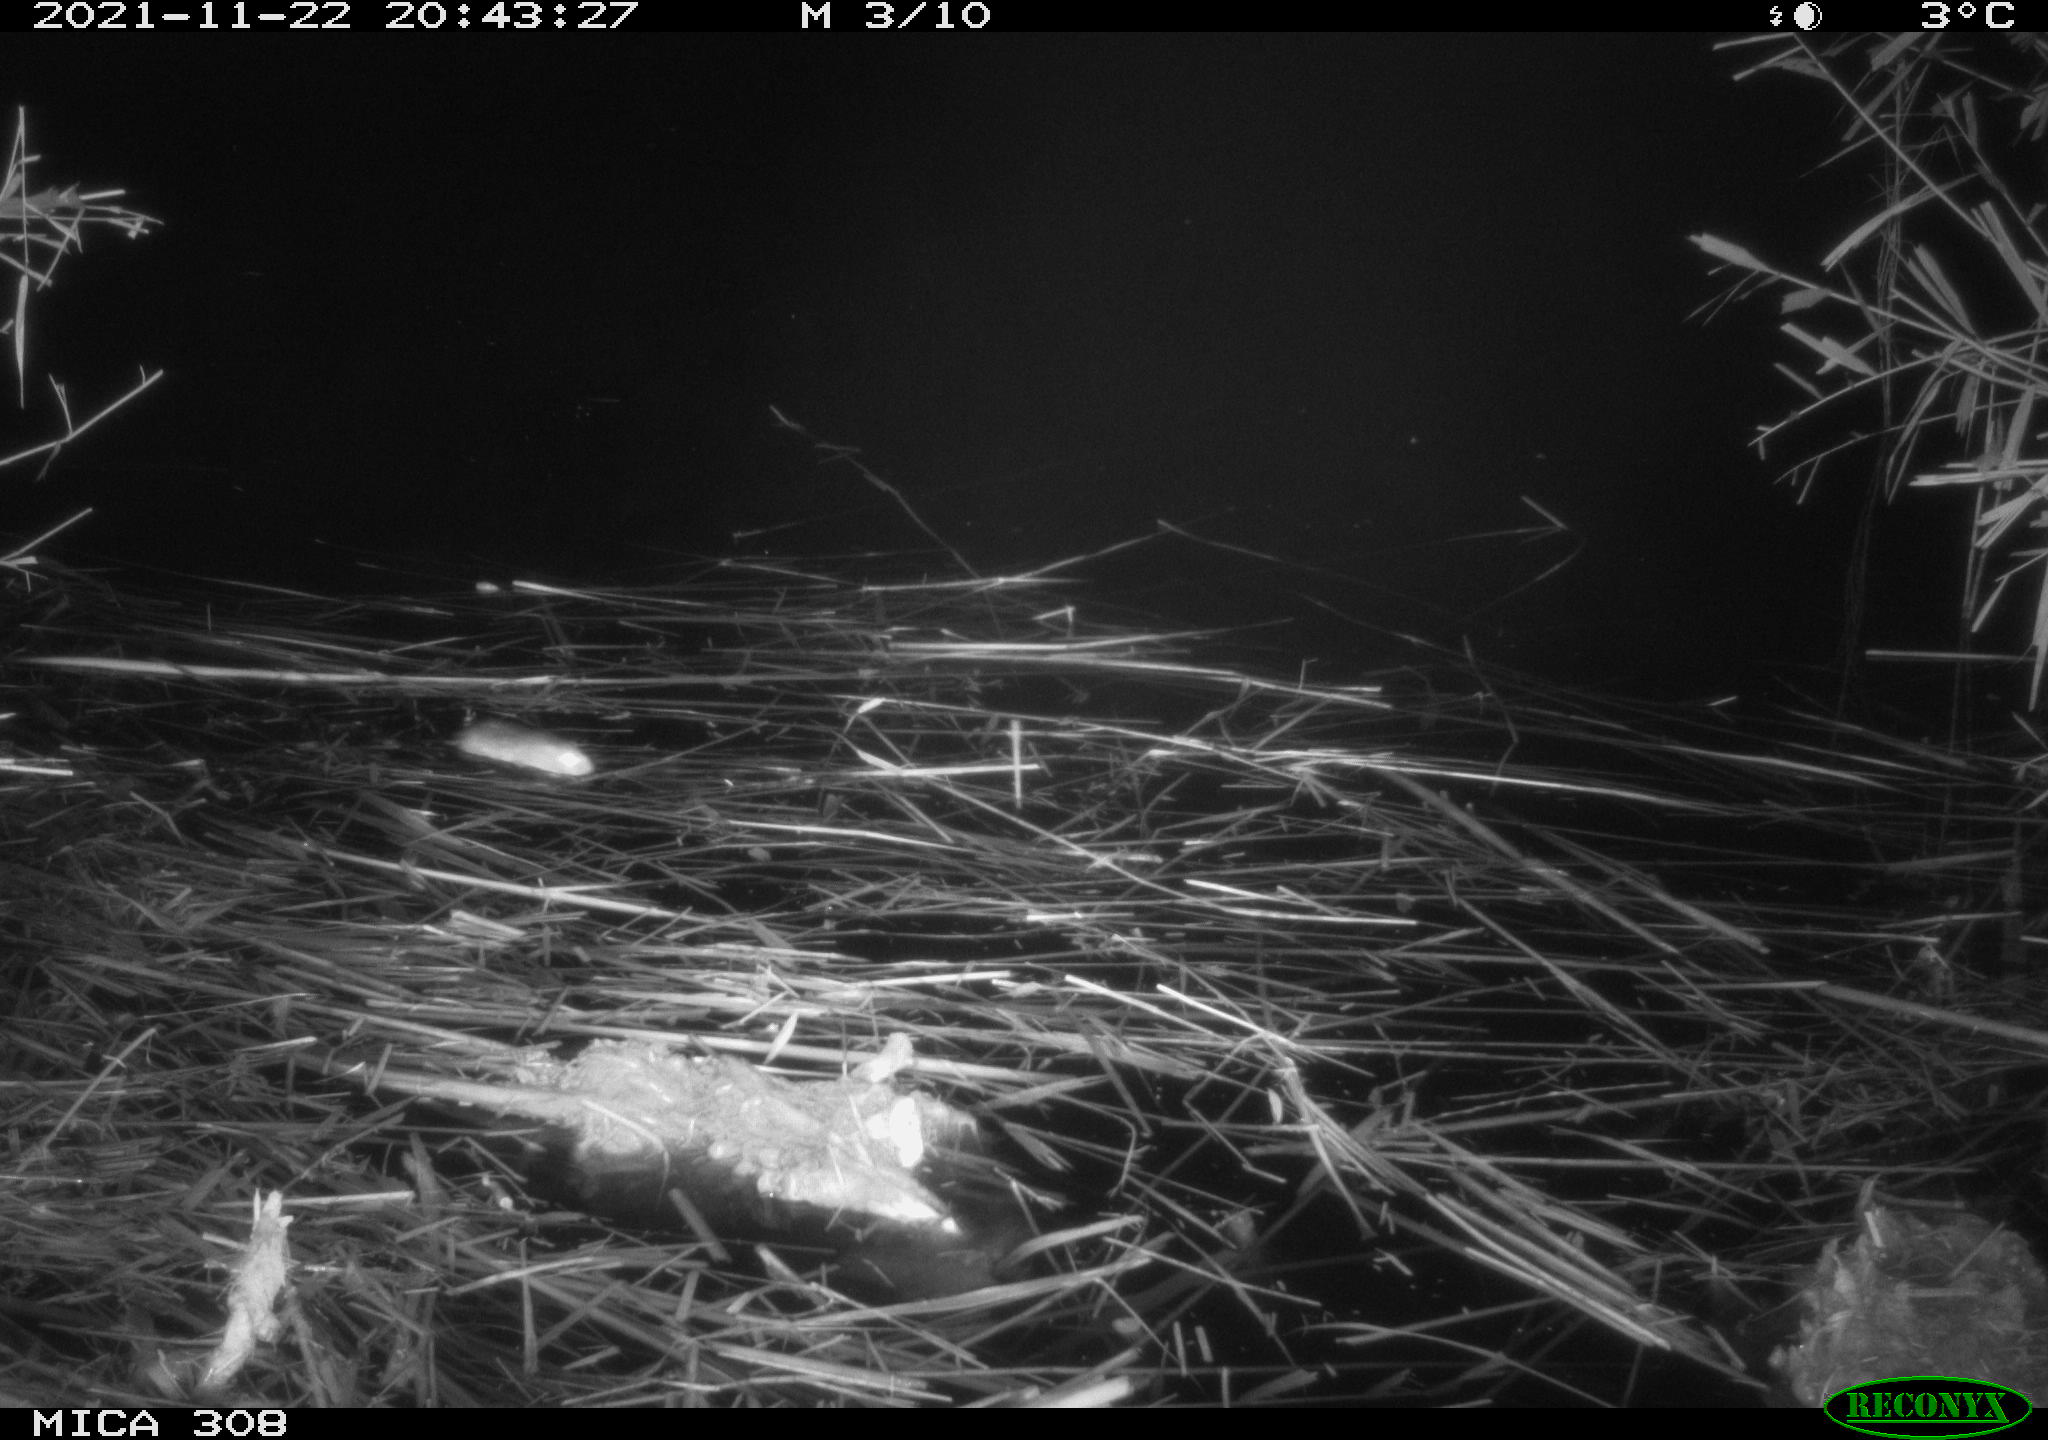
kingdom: Animalia
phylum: Chordata
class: Mammalia
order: Rodentia
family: Muridae
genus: Rattus
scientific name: Rattus norvegicus
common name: Brown rat
